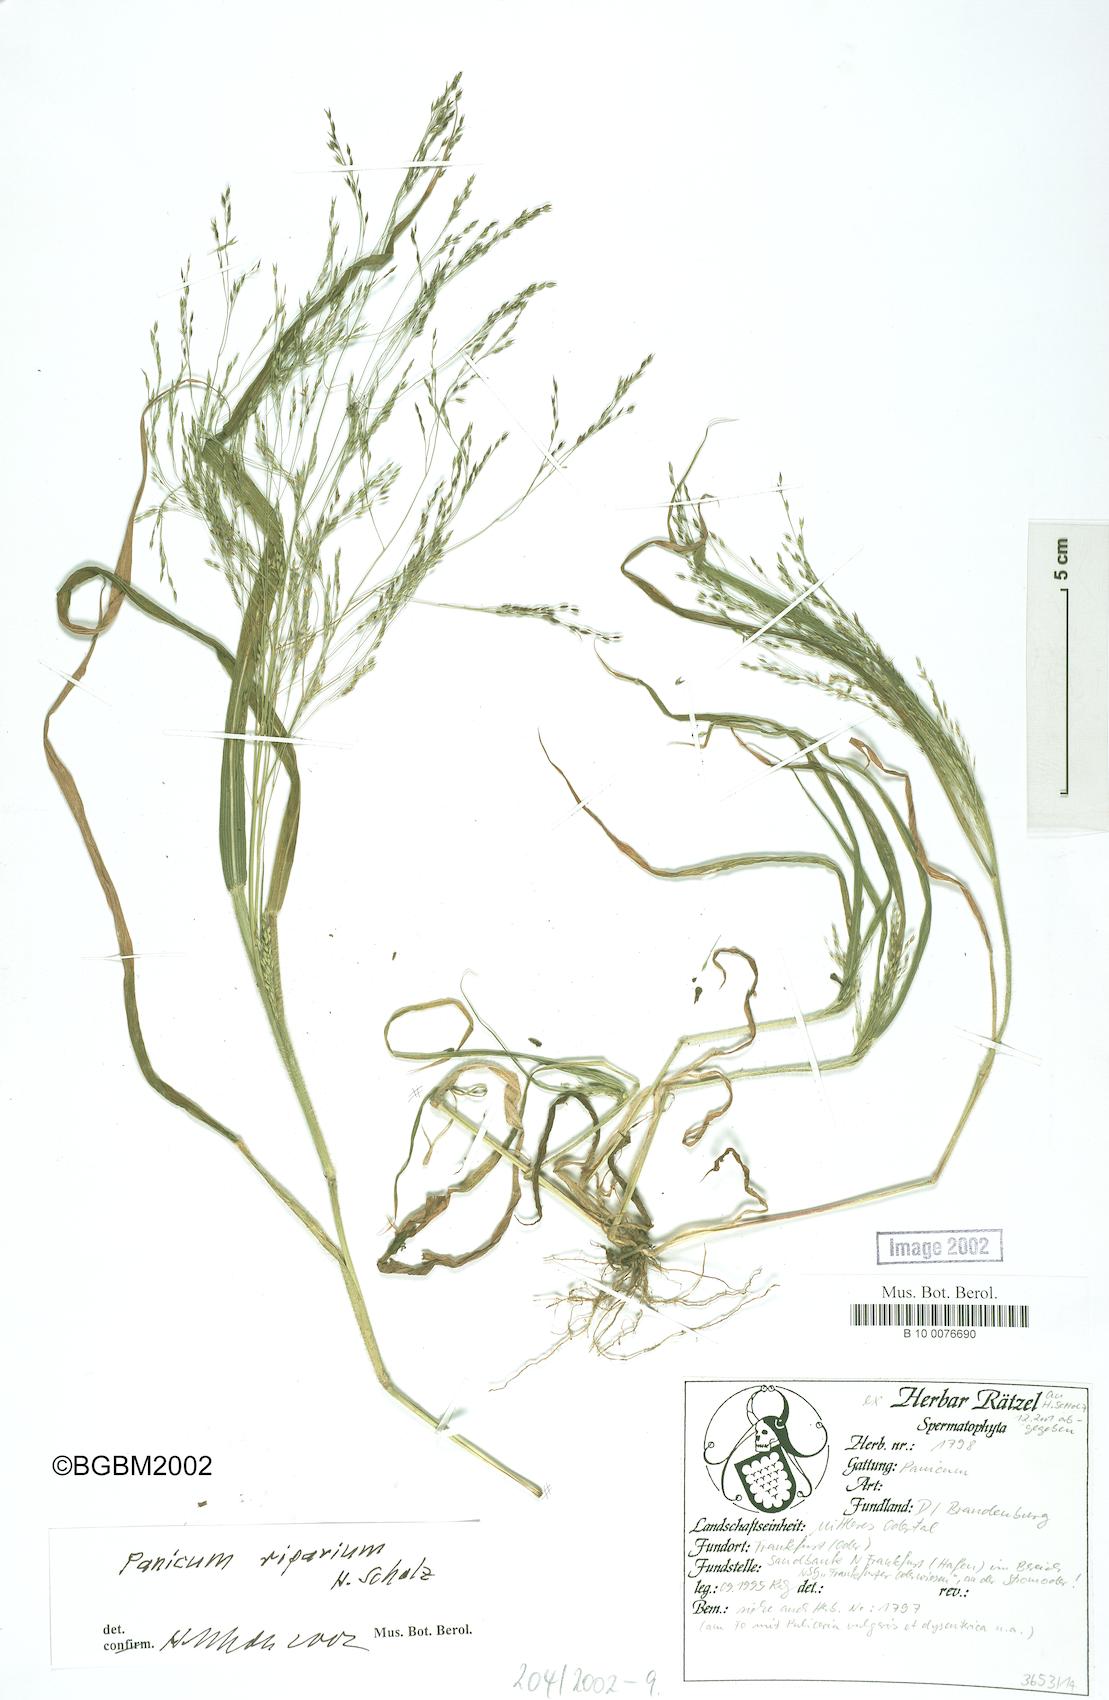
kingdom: Plantae
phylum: Tracheophyta
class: Liliopsida
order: Poales
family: Poaceae
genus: Panicum
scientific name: Panicum capillare
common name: Witch-grass
